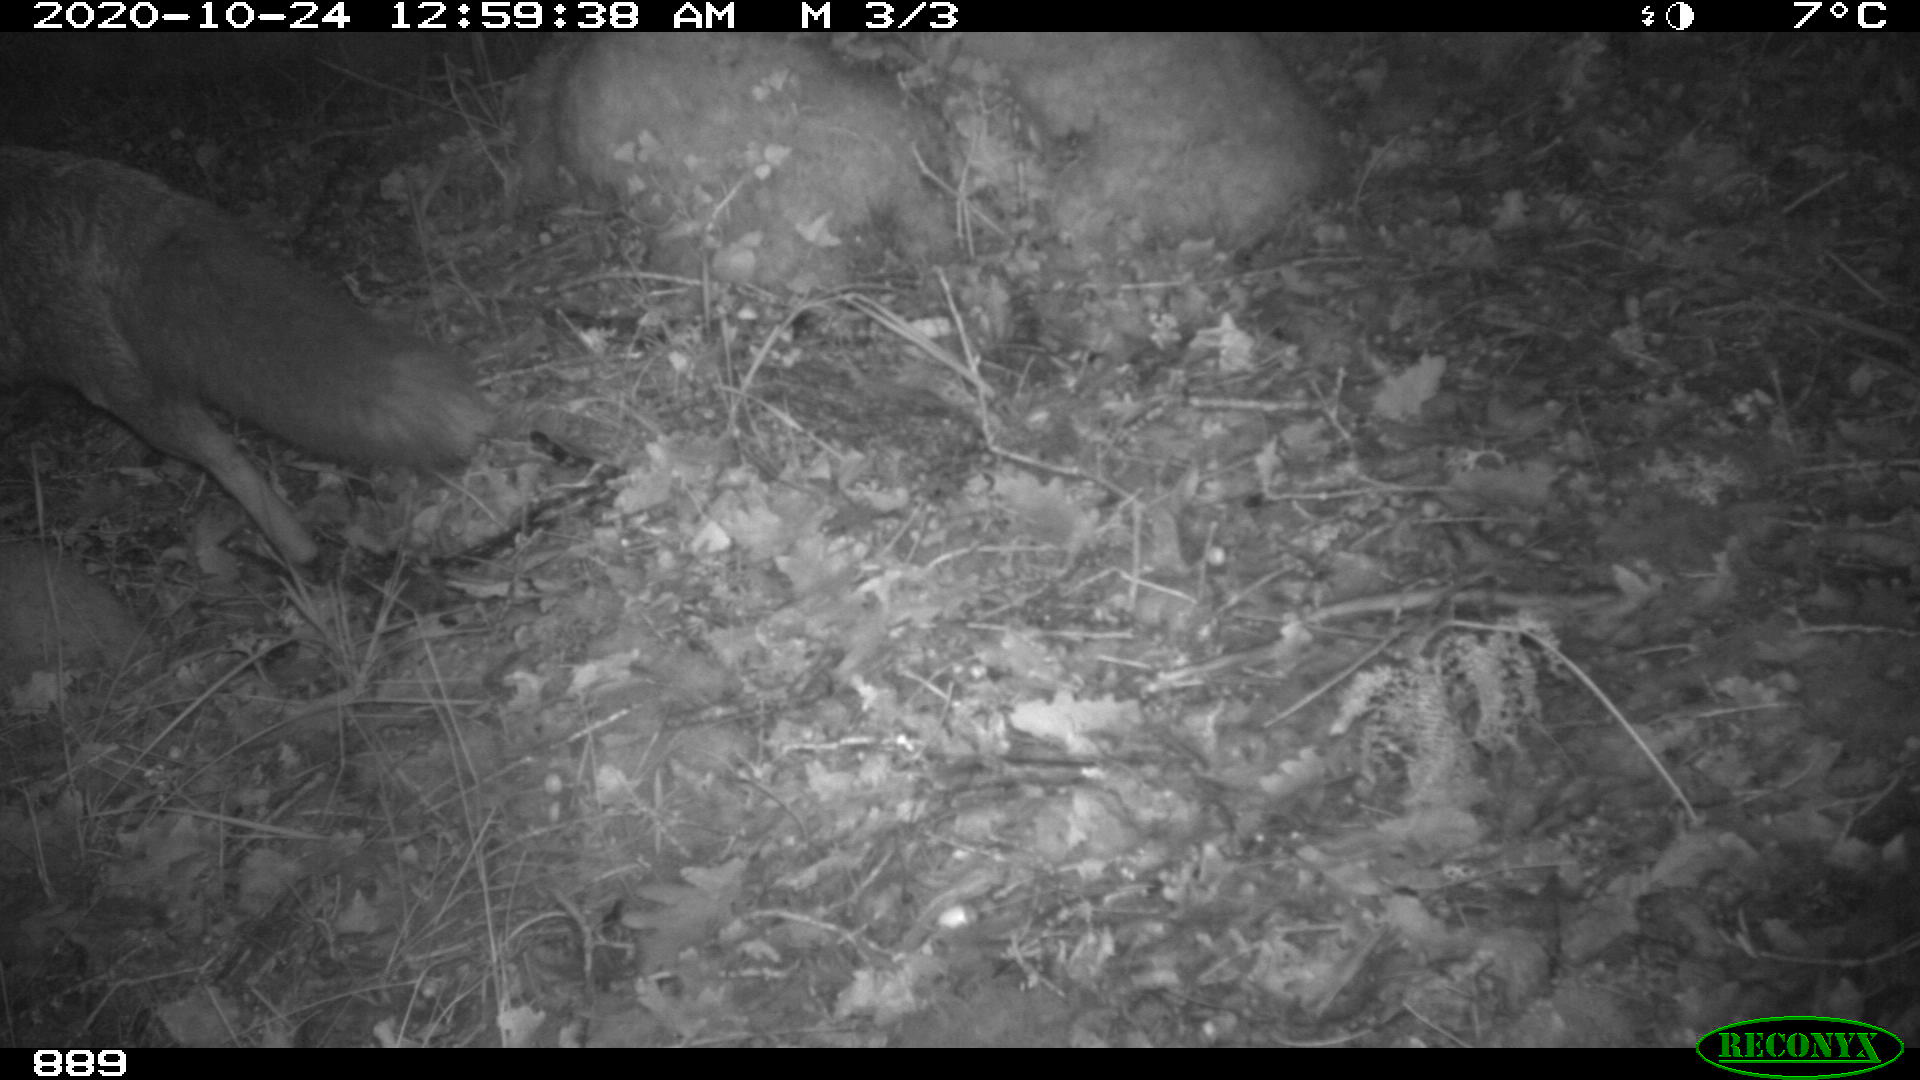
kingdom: Animalia
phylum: Chordata
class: Mammalia
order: Carnivora
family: Canidae
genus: Vulpes
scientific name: Vulpes vulpes
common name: Red fox
